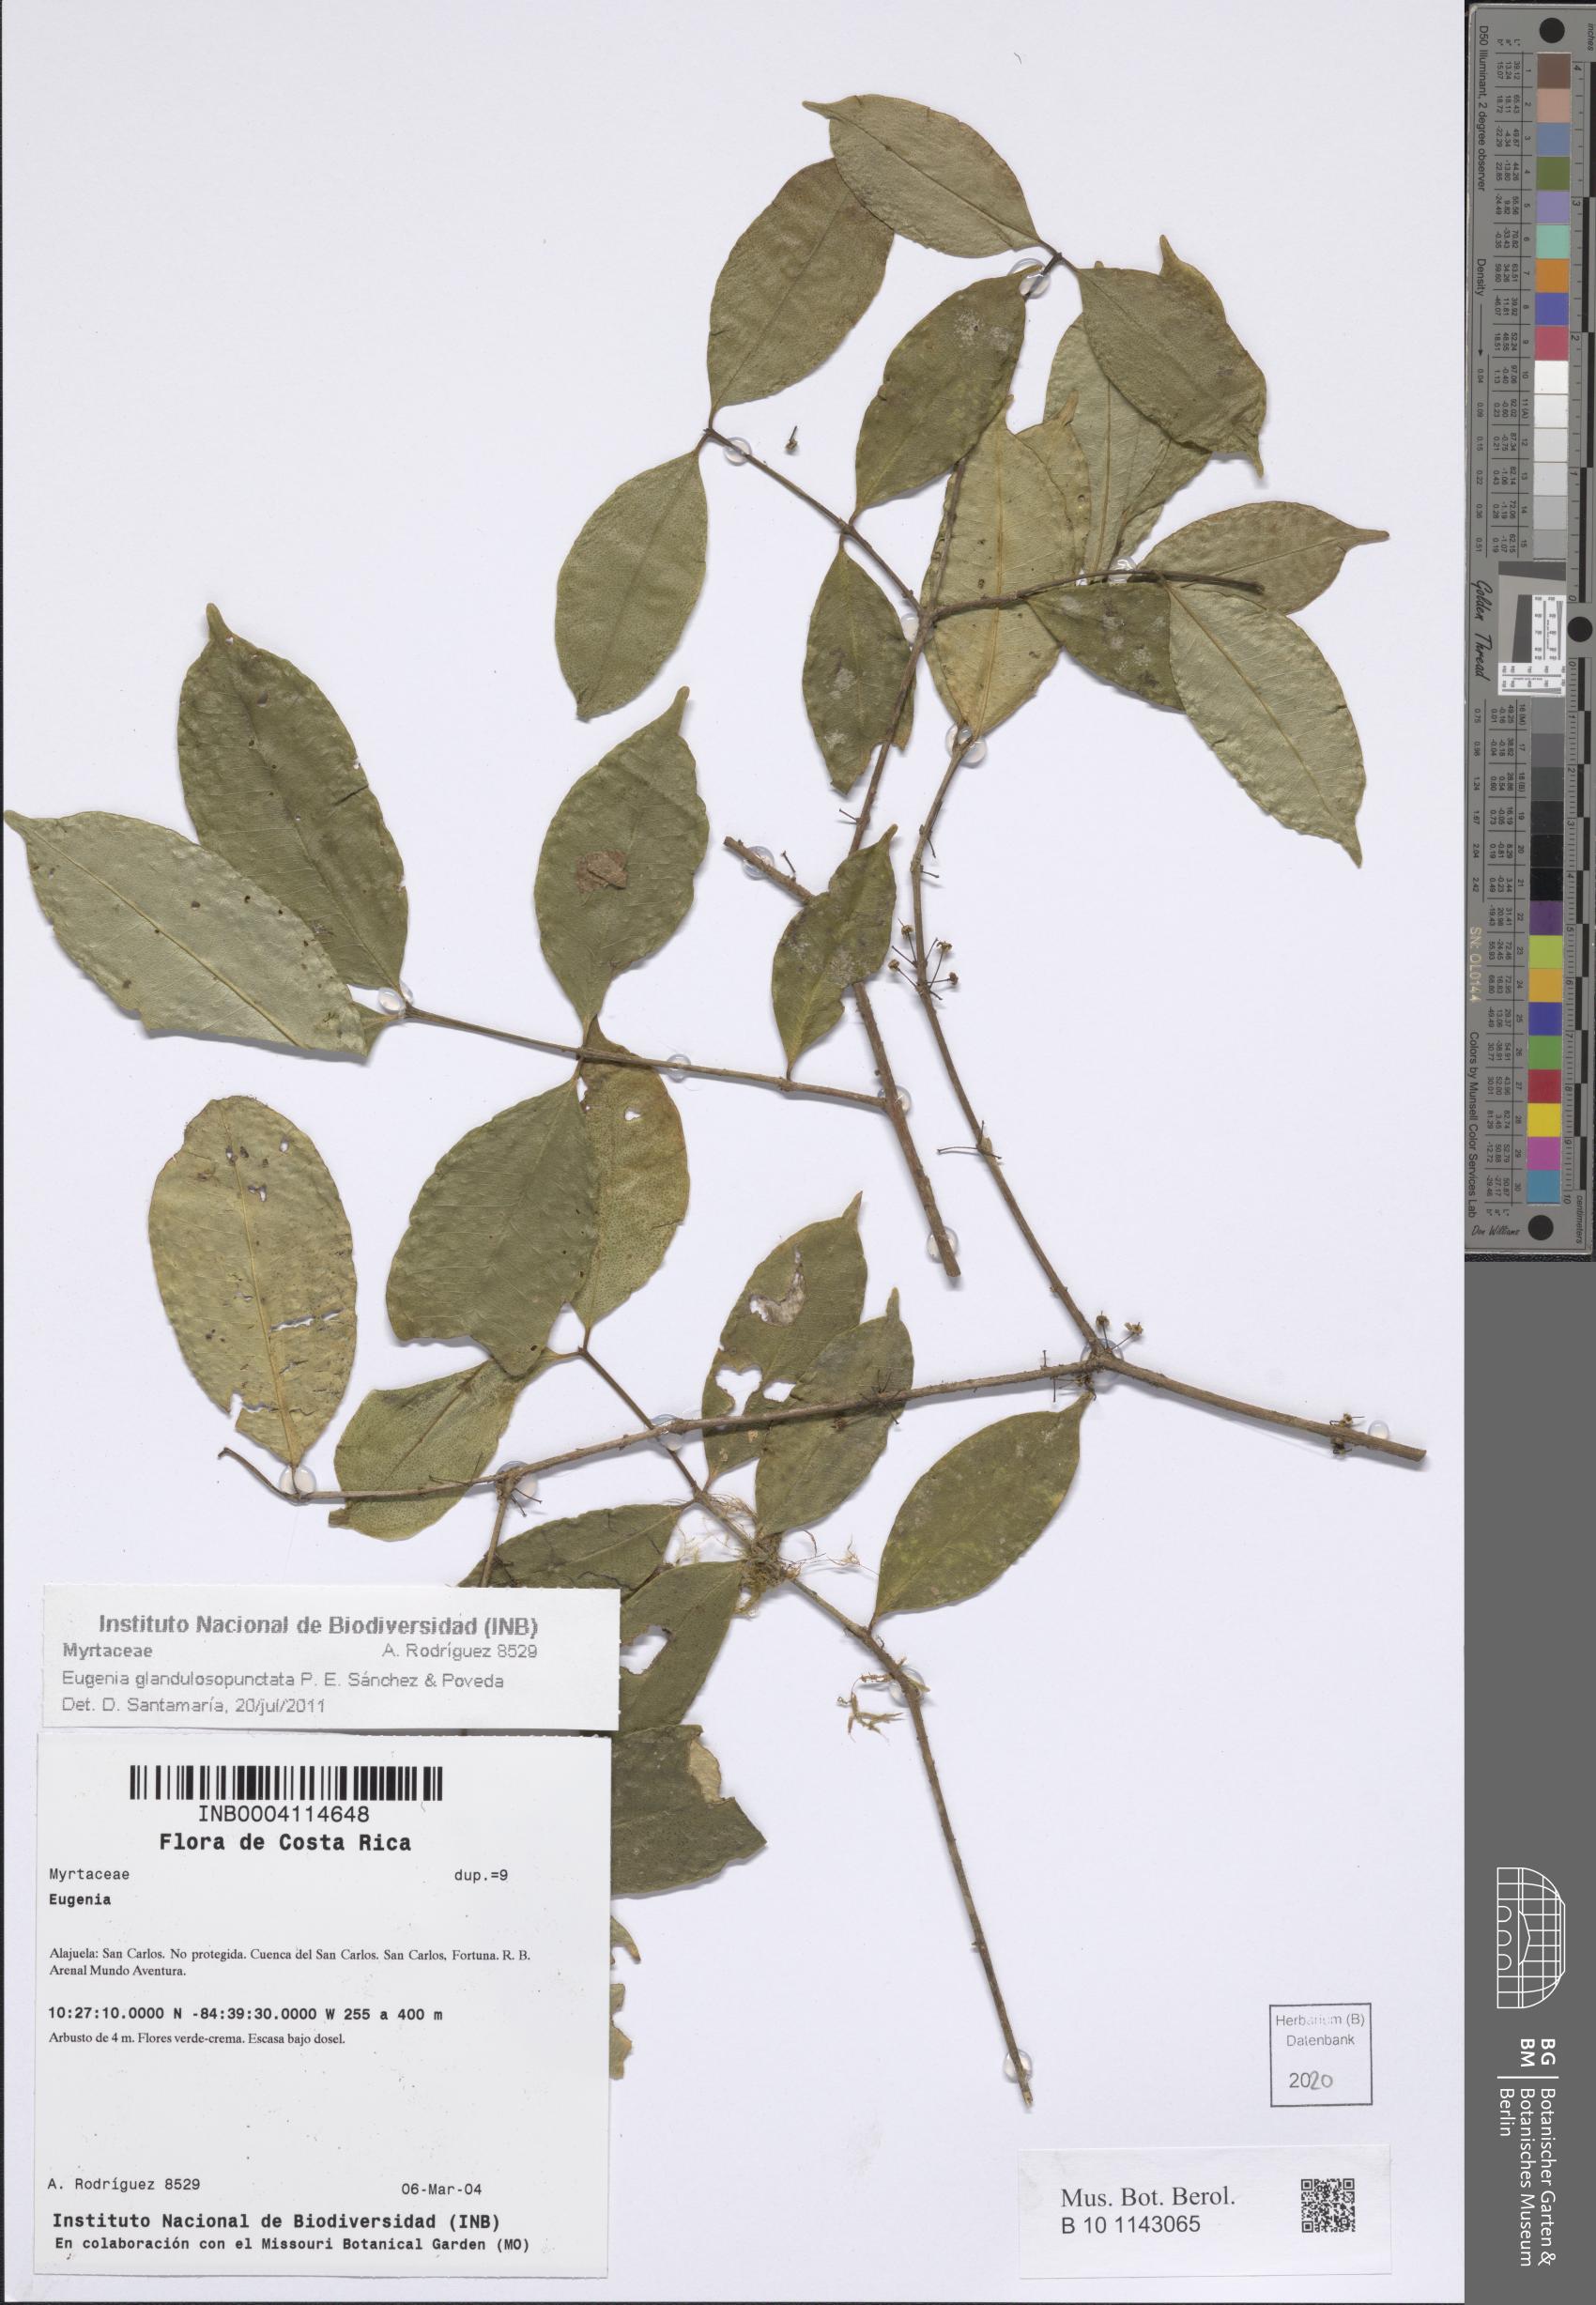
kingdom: Plantae
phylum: Tracheophyta
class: Magnoliopsida
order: Myrtales
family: Myrtaceae
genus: Eugenia
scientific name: Eugenia
